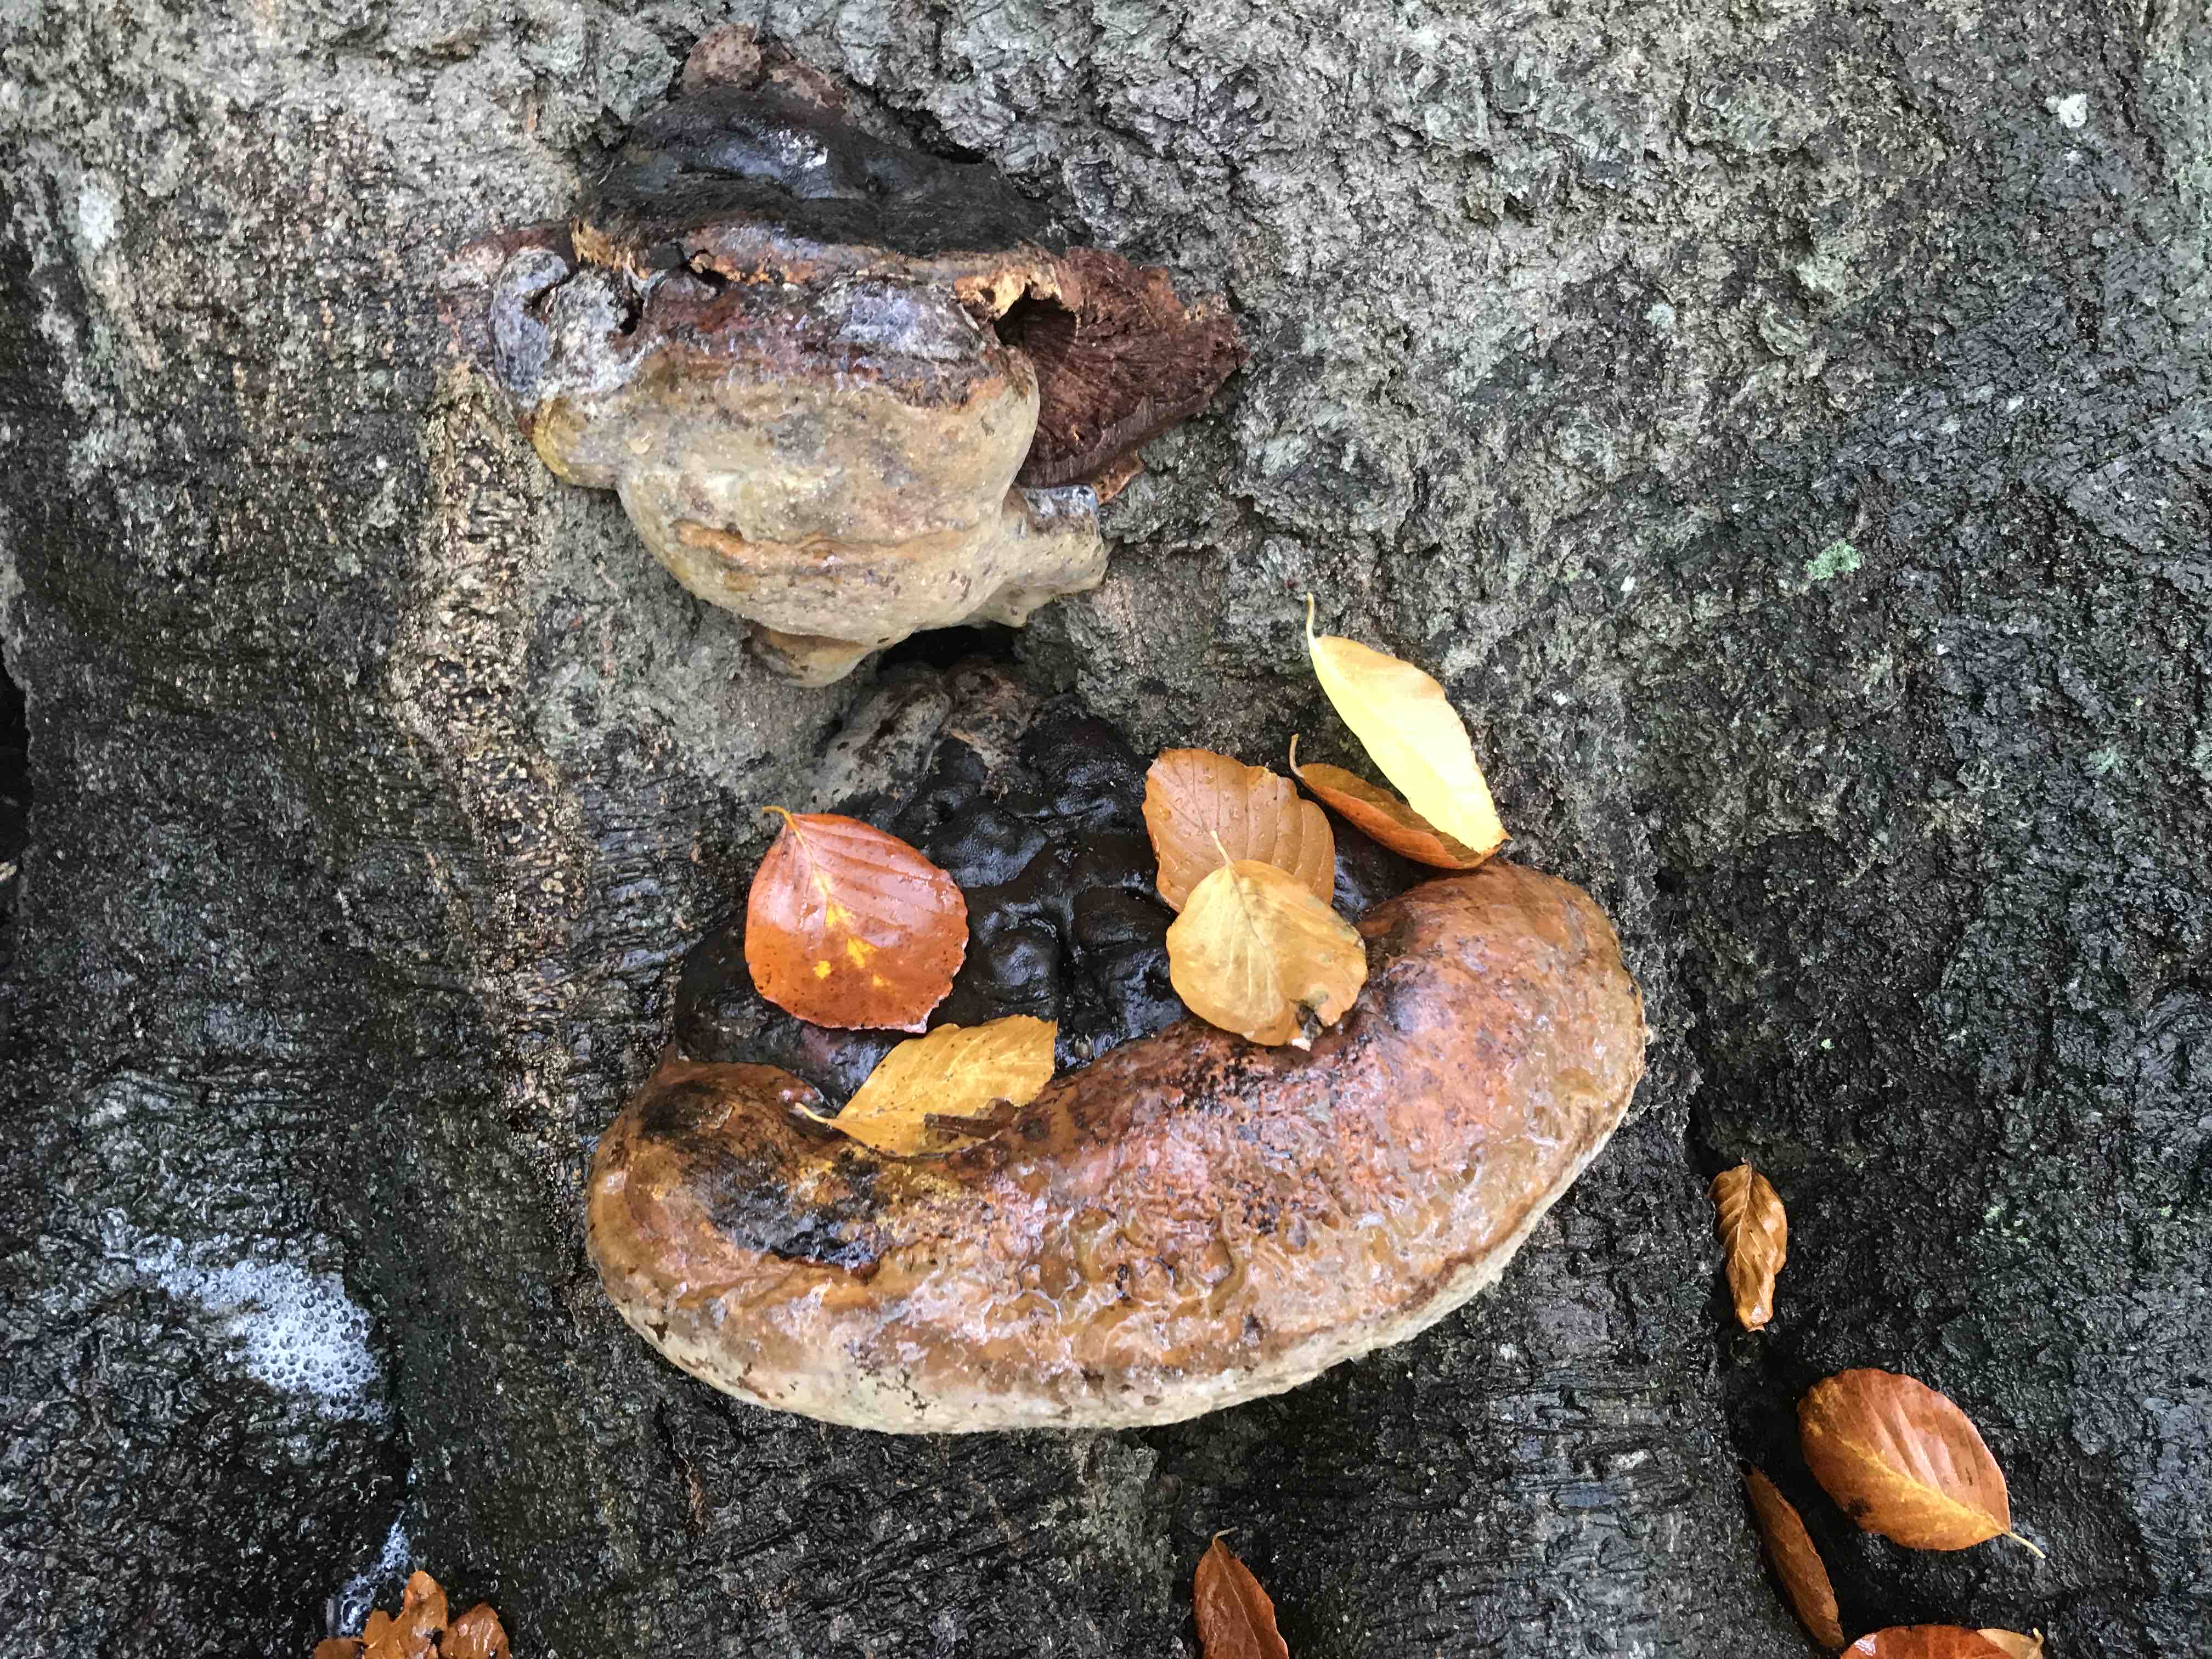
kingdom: Fungi
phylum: Basidiomycota
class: Agaricomycetes
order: Polyporales
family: Polyporaceae
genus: Ganoderma
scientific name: Ganoderma pfeifferi
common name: kobberrød lakporesvamp
